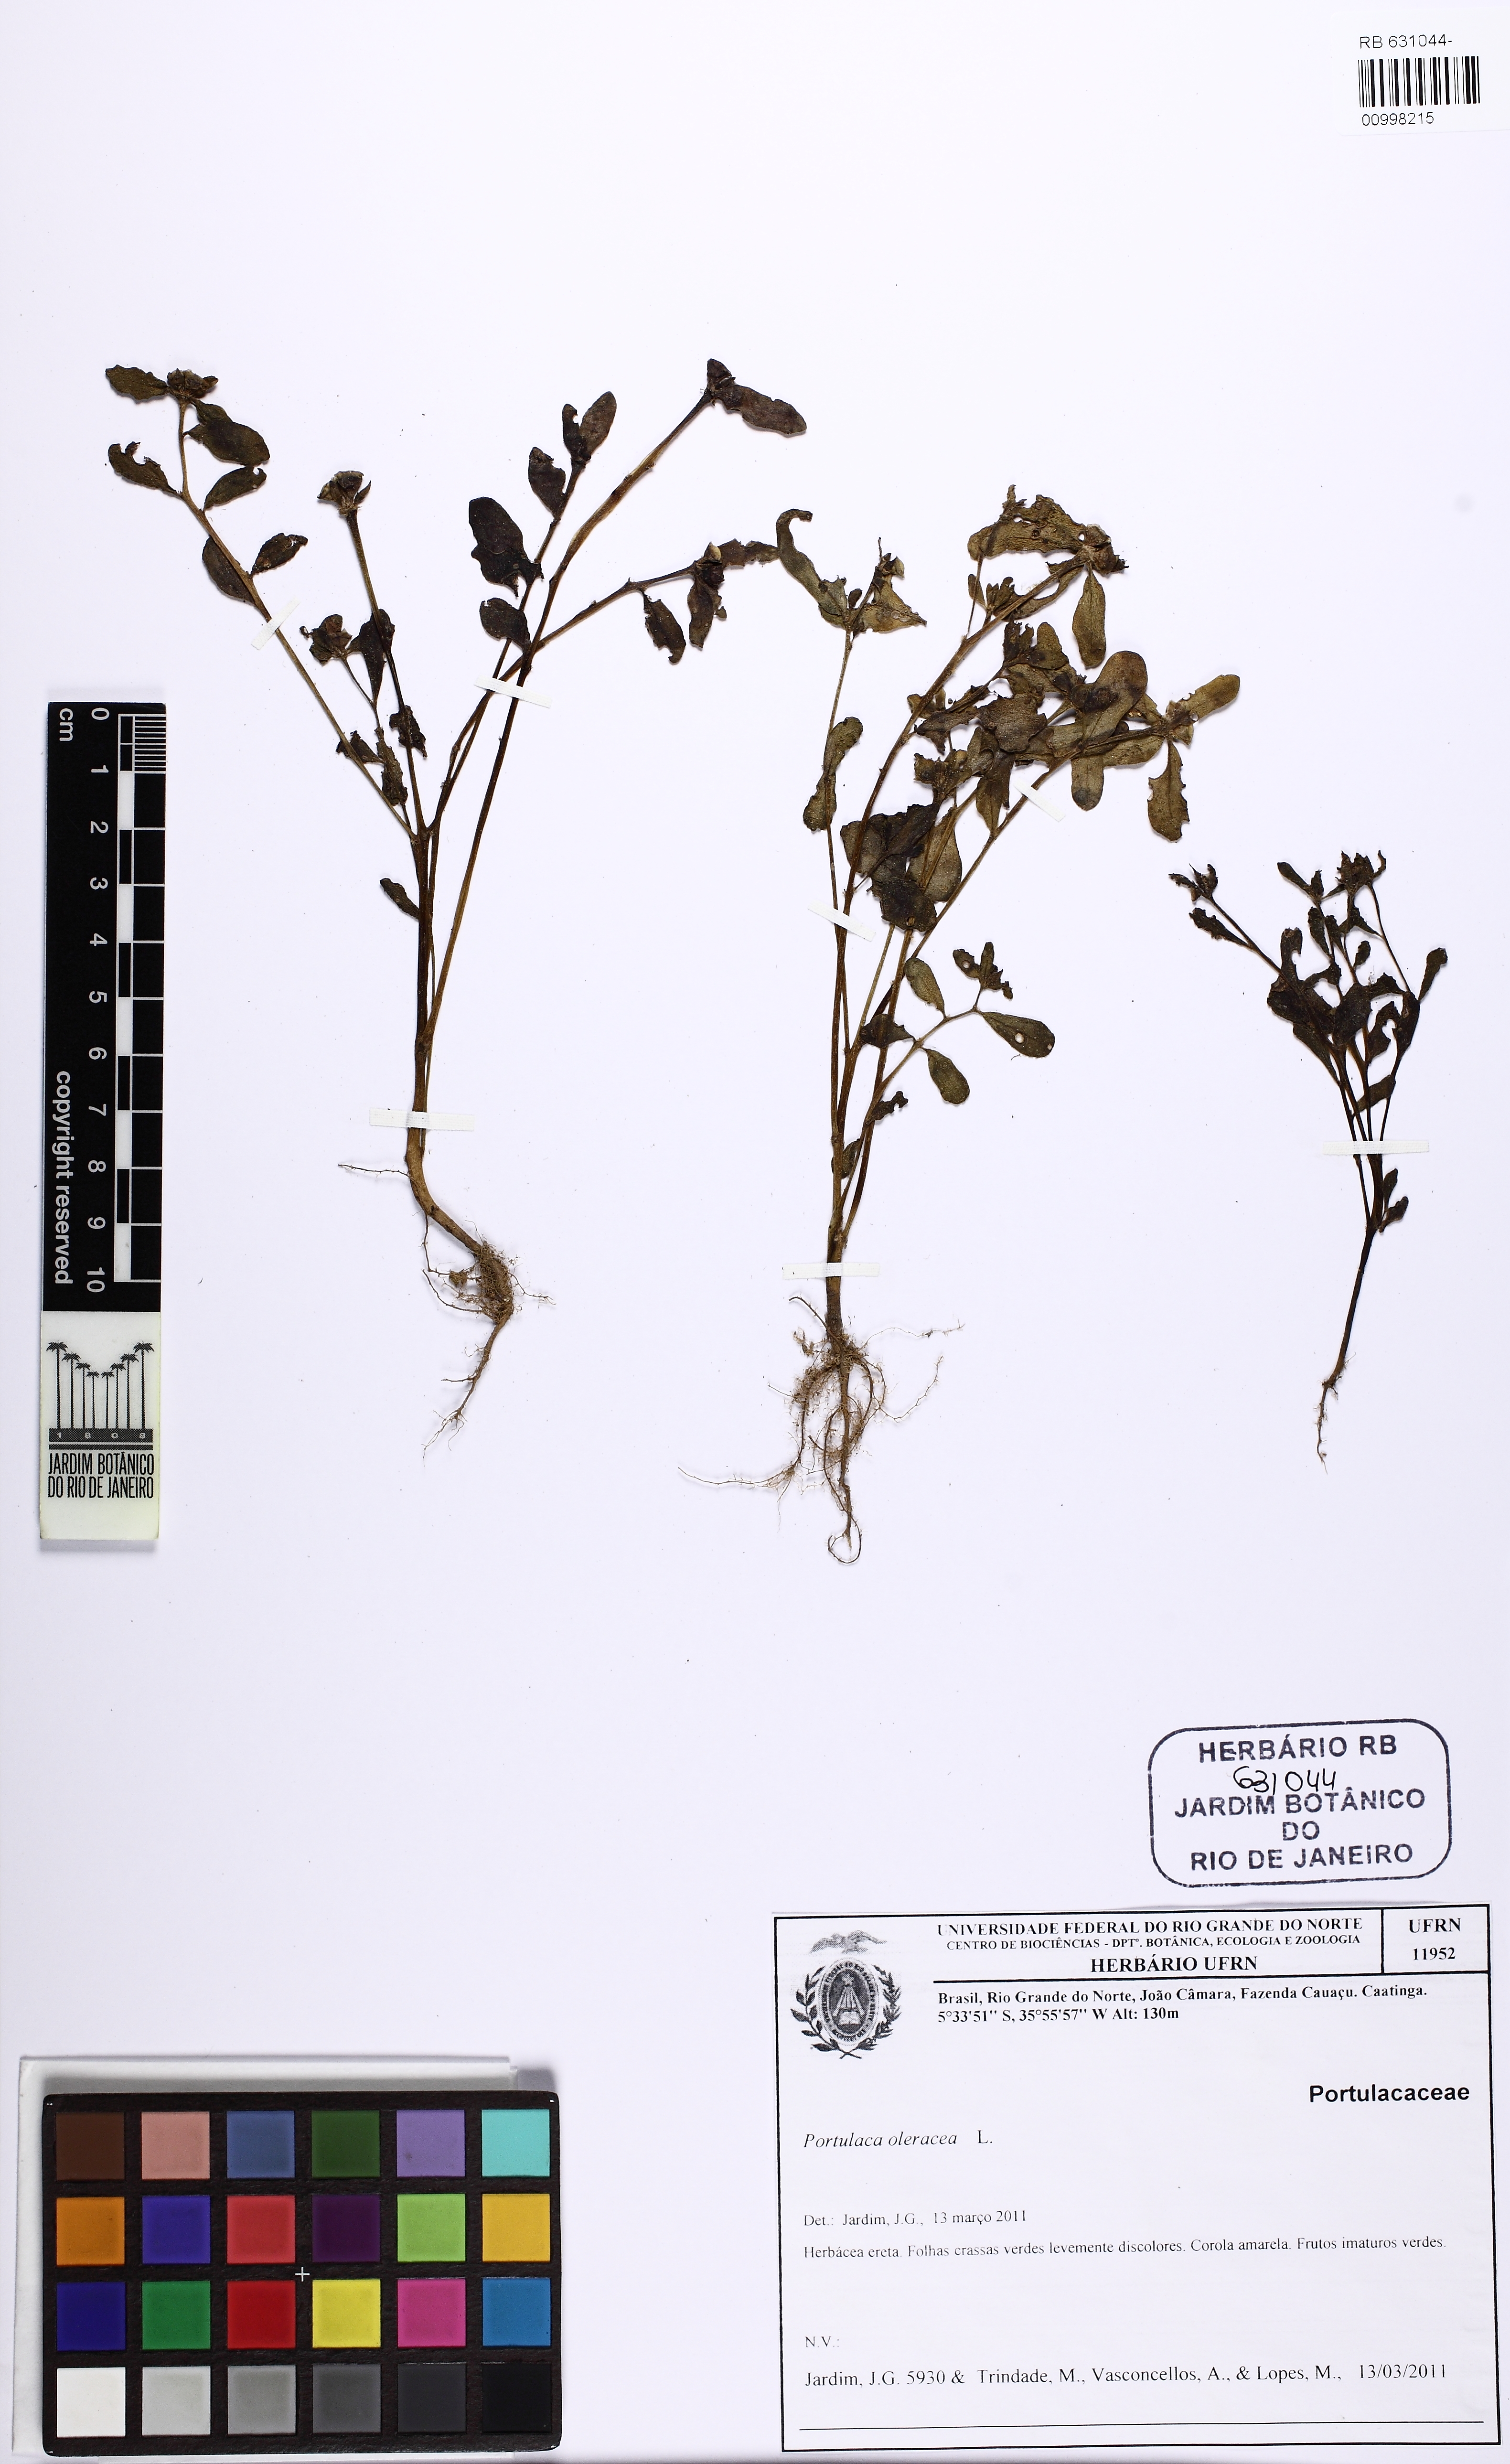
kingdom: Plantae
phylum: Tracheophyta
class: Magnoliopsida
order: Caryophyllales
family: Portulacaceae
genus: Portulaca
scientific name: Portulaca oleracea
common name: Common purslane
